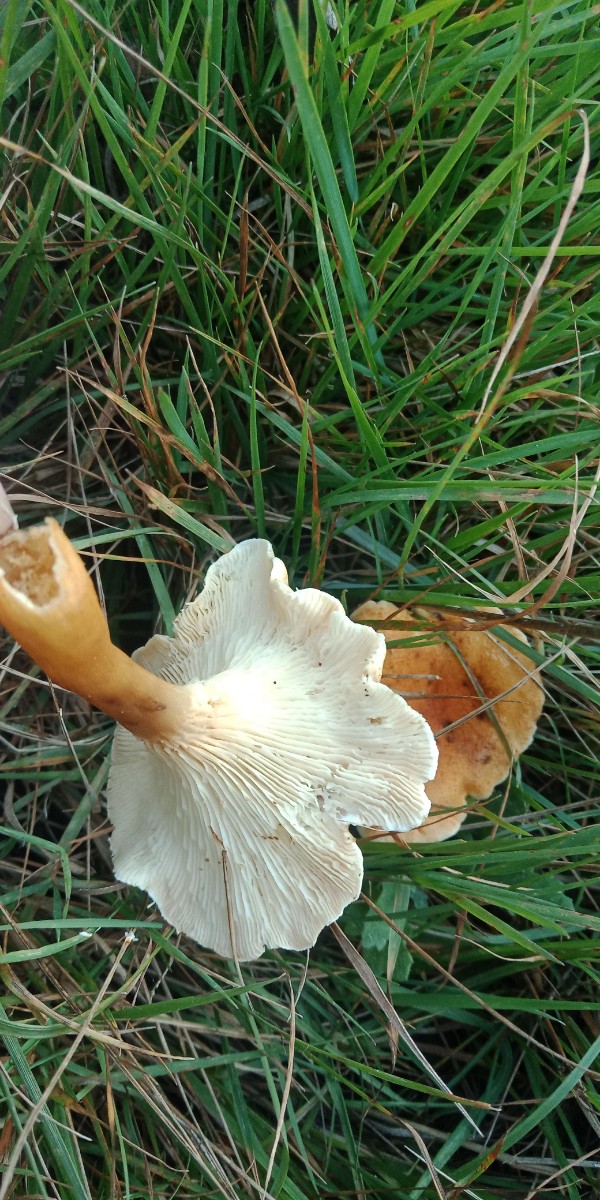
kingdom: Fungi
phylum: Basidiomycota
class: Agaricomycetes
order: Boletales
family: Hygrophoropsidaceae
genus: Hygrophoropsis
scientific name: Hygrophoropsis
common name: orangekantarel
